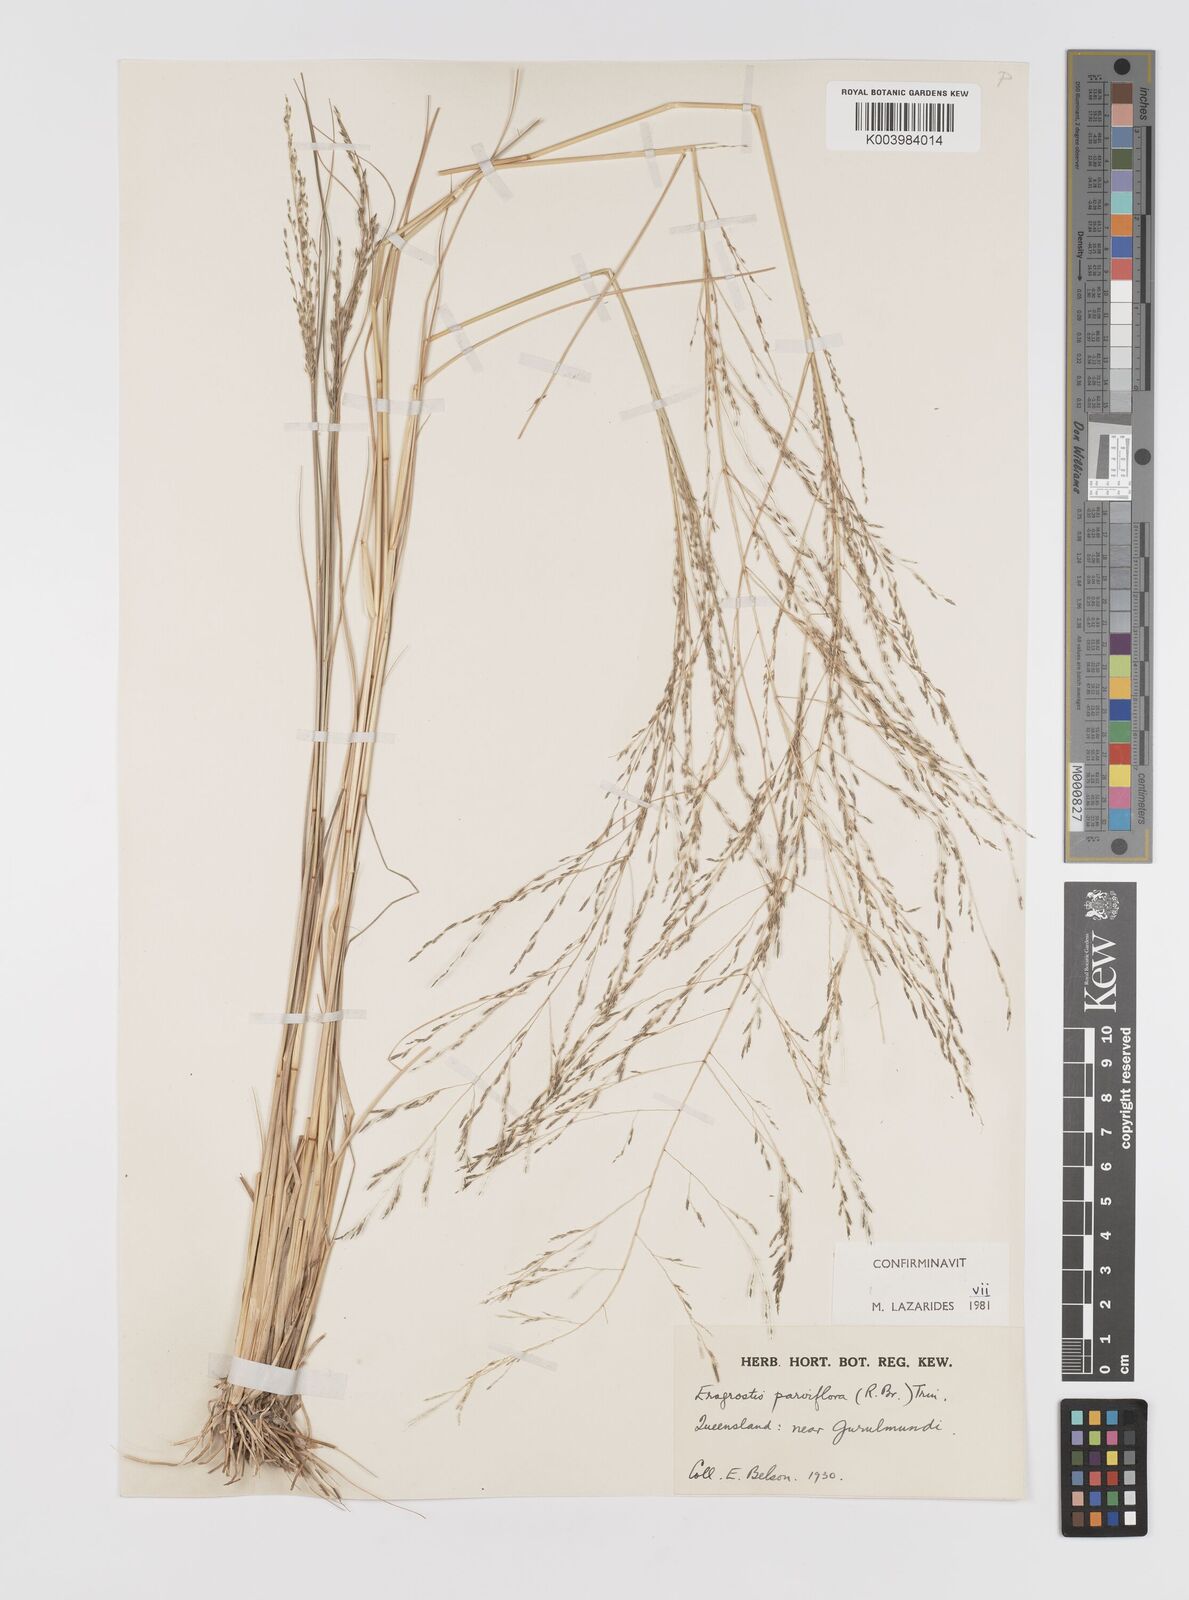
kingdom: Plantae
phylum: Tracheophyta
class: Liliopsida
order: Poales
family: Poaceae
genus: Eragrostis
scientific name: Eragrostis parviflora
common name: Weeping love-grass
